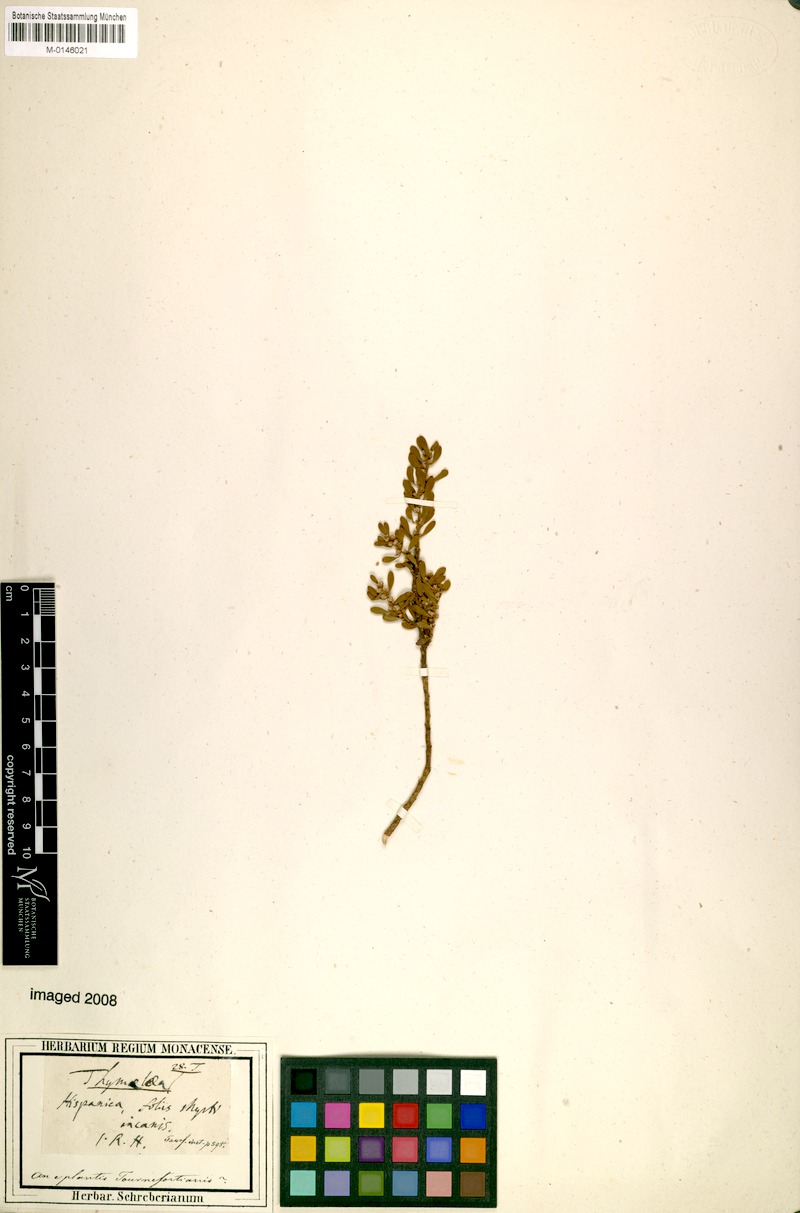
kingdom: Plantae
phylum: Tracheophyta
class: Magnoliopsida
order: Malvales
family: Thymelaeaceae
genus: Thymelaea
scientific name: Thymelaea
